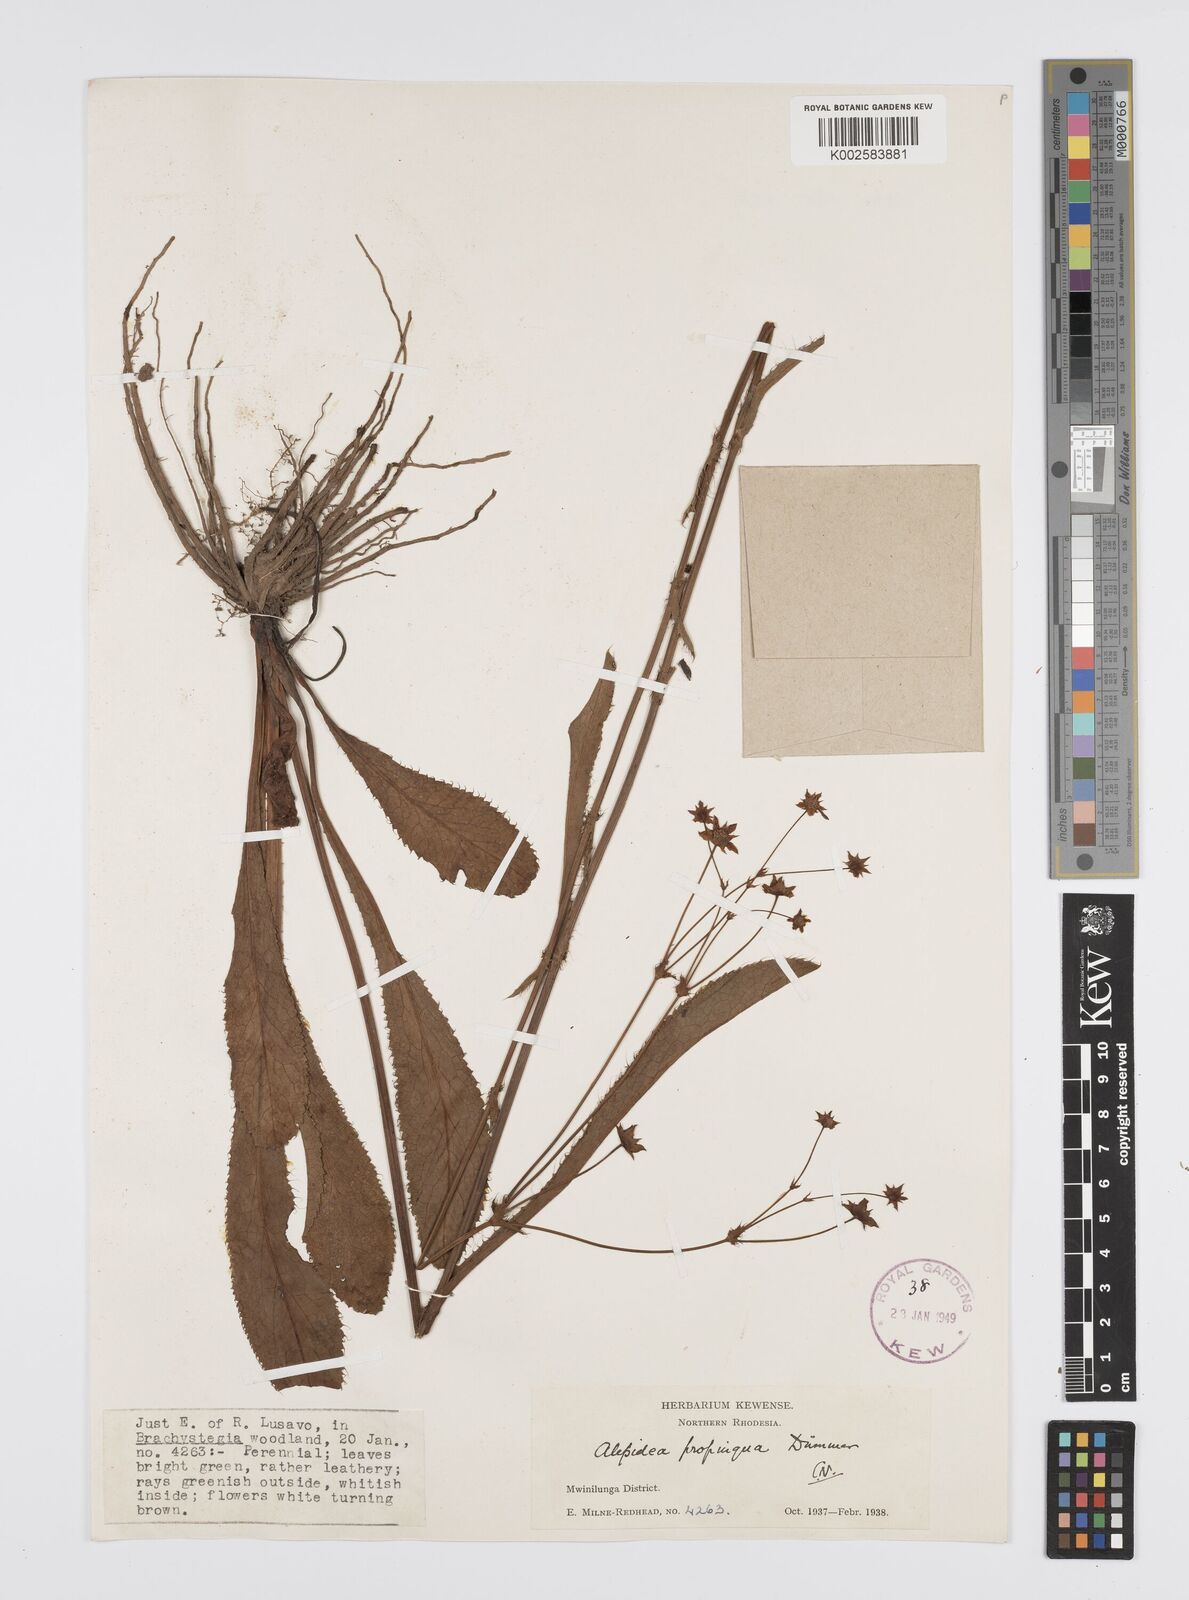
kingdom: Plantae
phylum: Tracheophyta
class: Magnoliopsida
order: Apiales
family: Apiaceae
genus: Alepidea
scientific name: Alepidea
